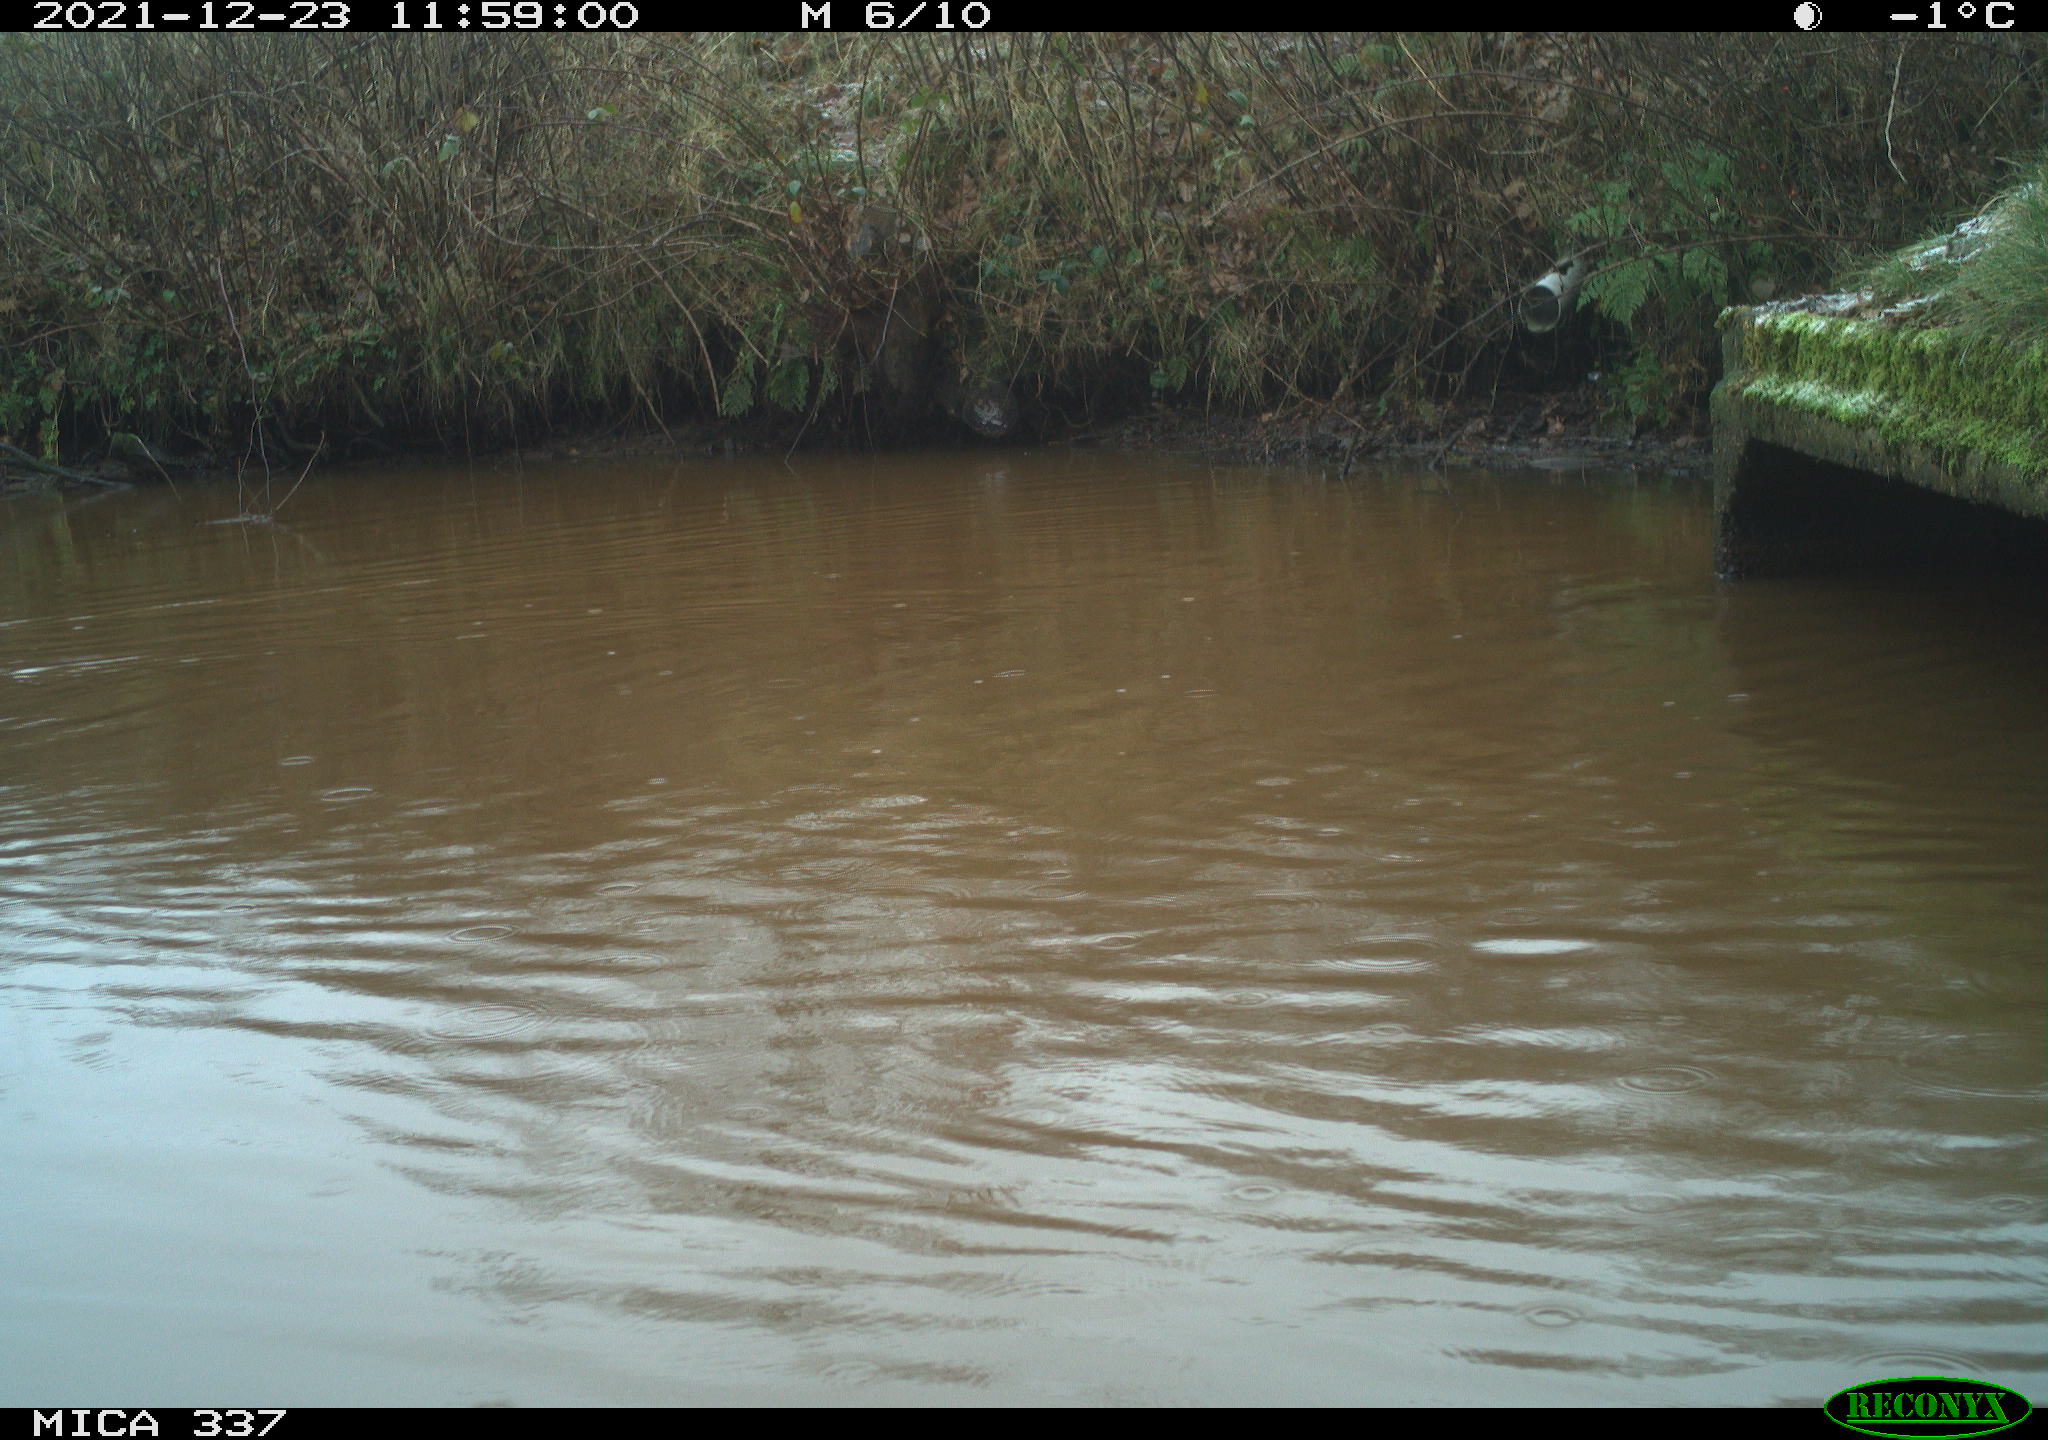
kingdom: Animalia
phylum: Chordata
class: Aves
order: Anseriformes
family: Anatidae
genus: Anas
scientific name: Anas platyrhynchos
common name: Mallard
